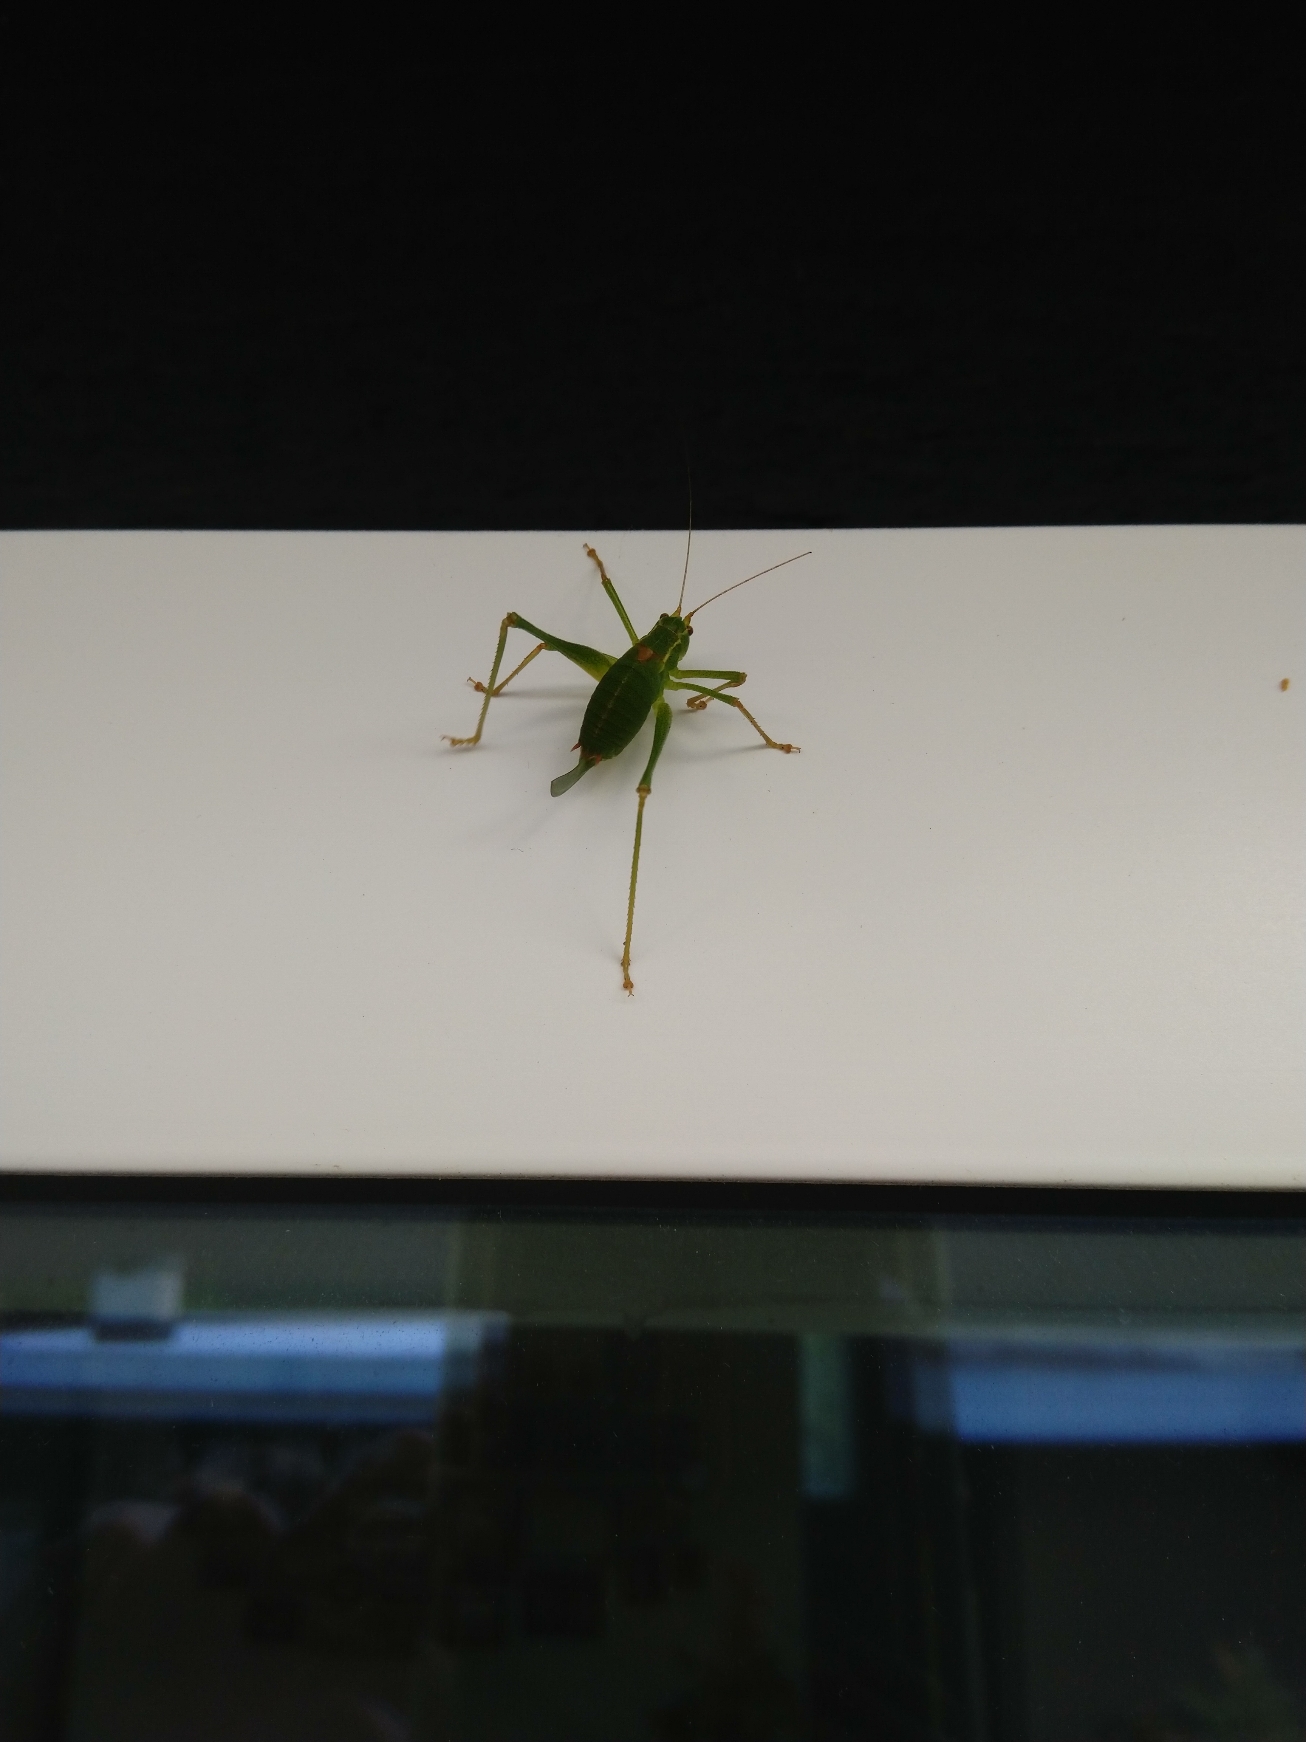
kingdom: Animalia
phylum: Arthropoda
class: Insecta
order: Orthoptera
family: Tettigoniidae
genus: Leptophyes
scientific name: Leptophyes punctatissima
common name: Krumknivgræshoppe
